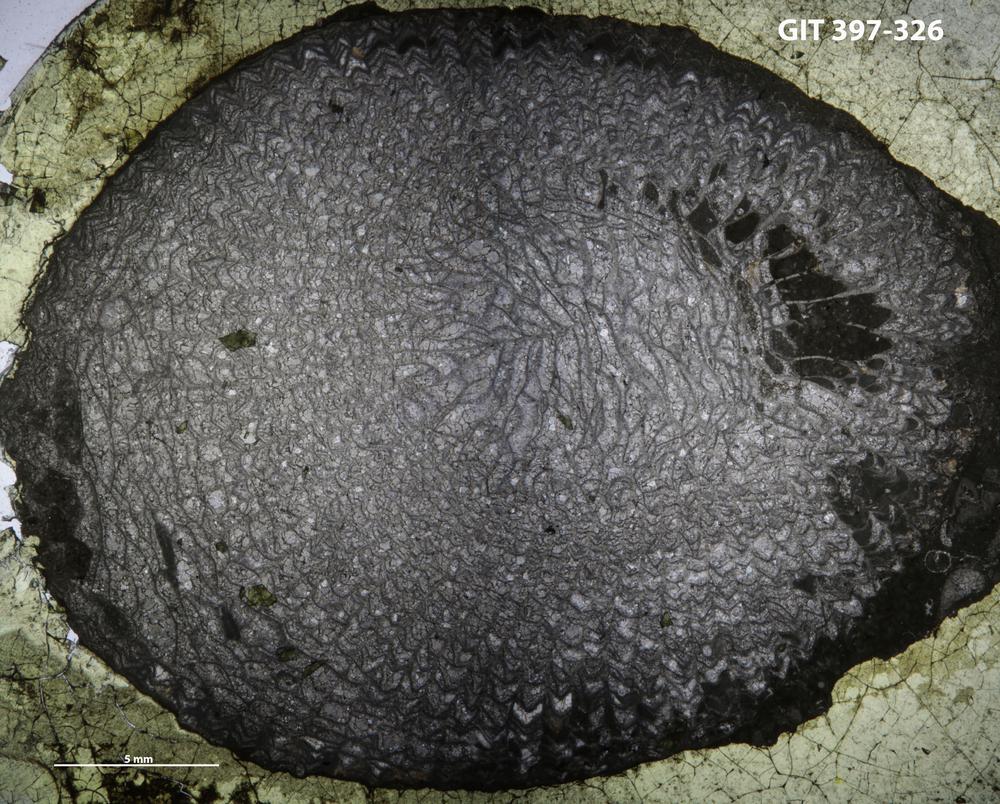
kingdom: Animalia
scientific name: Animalia
